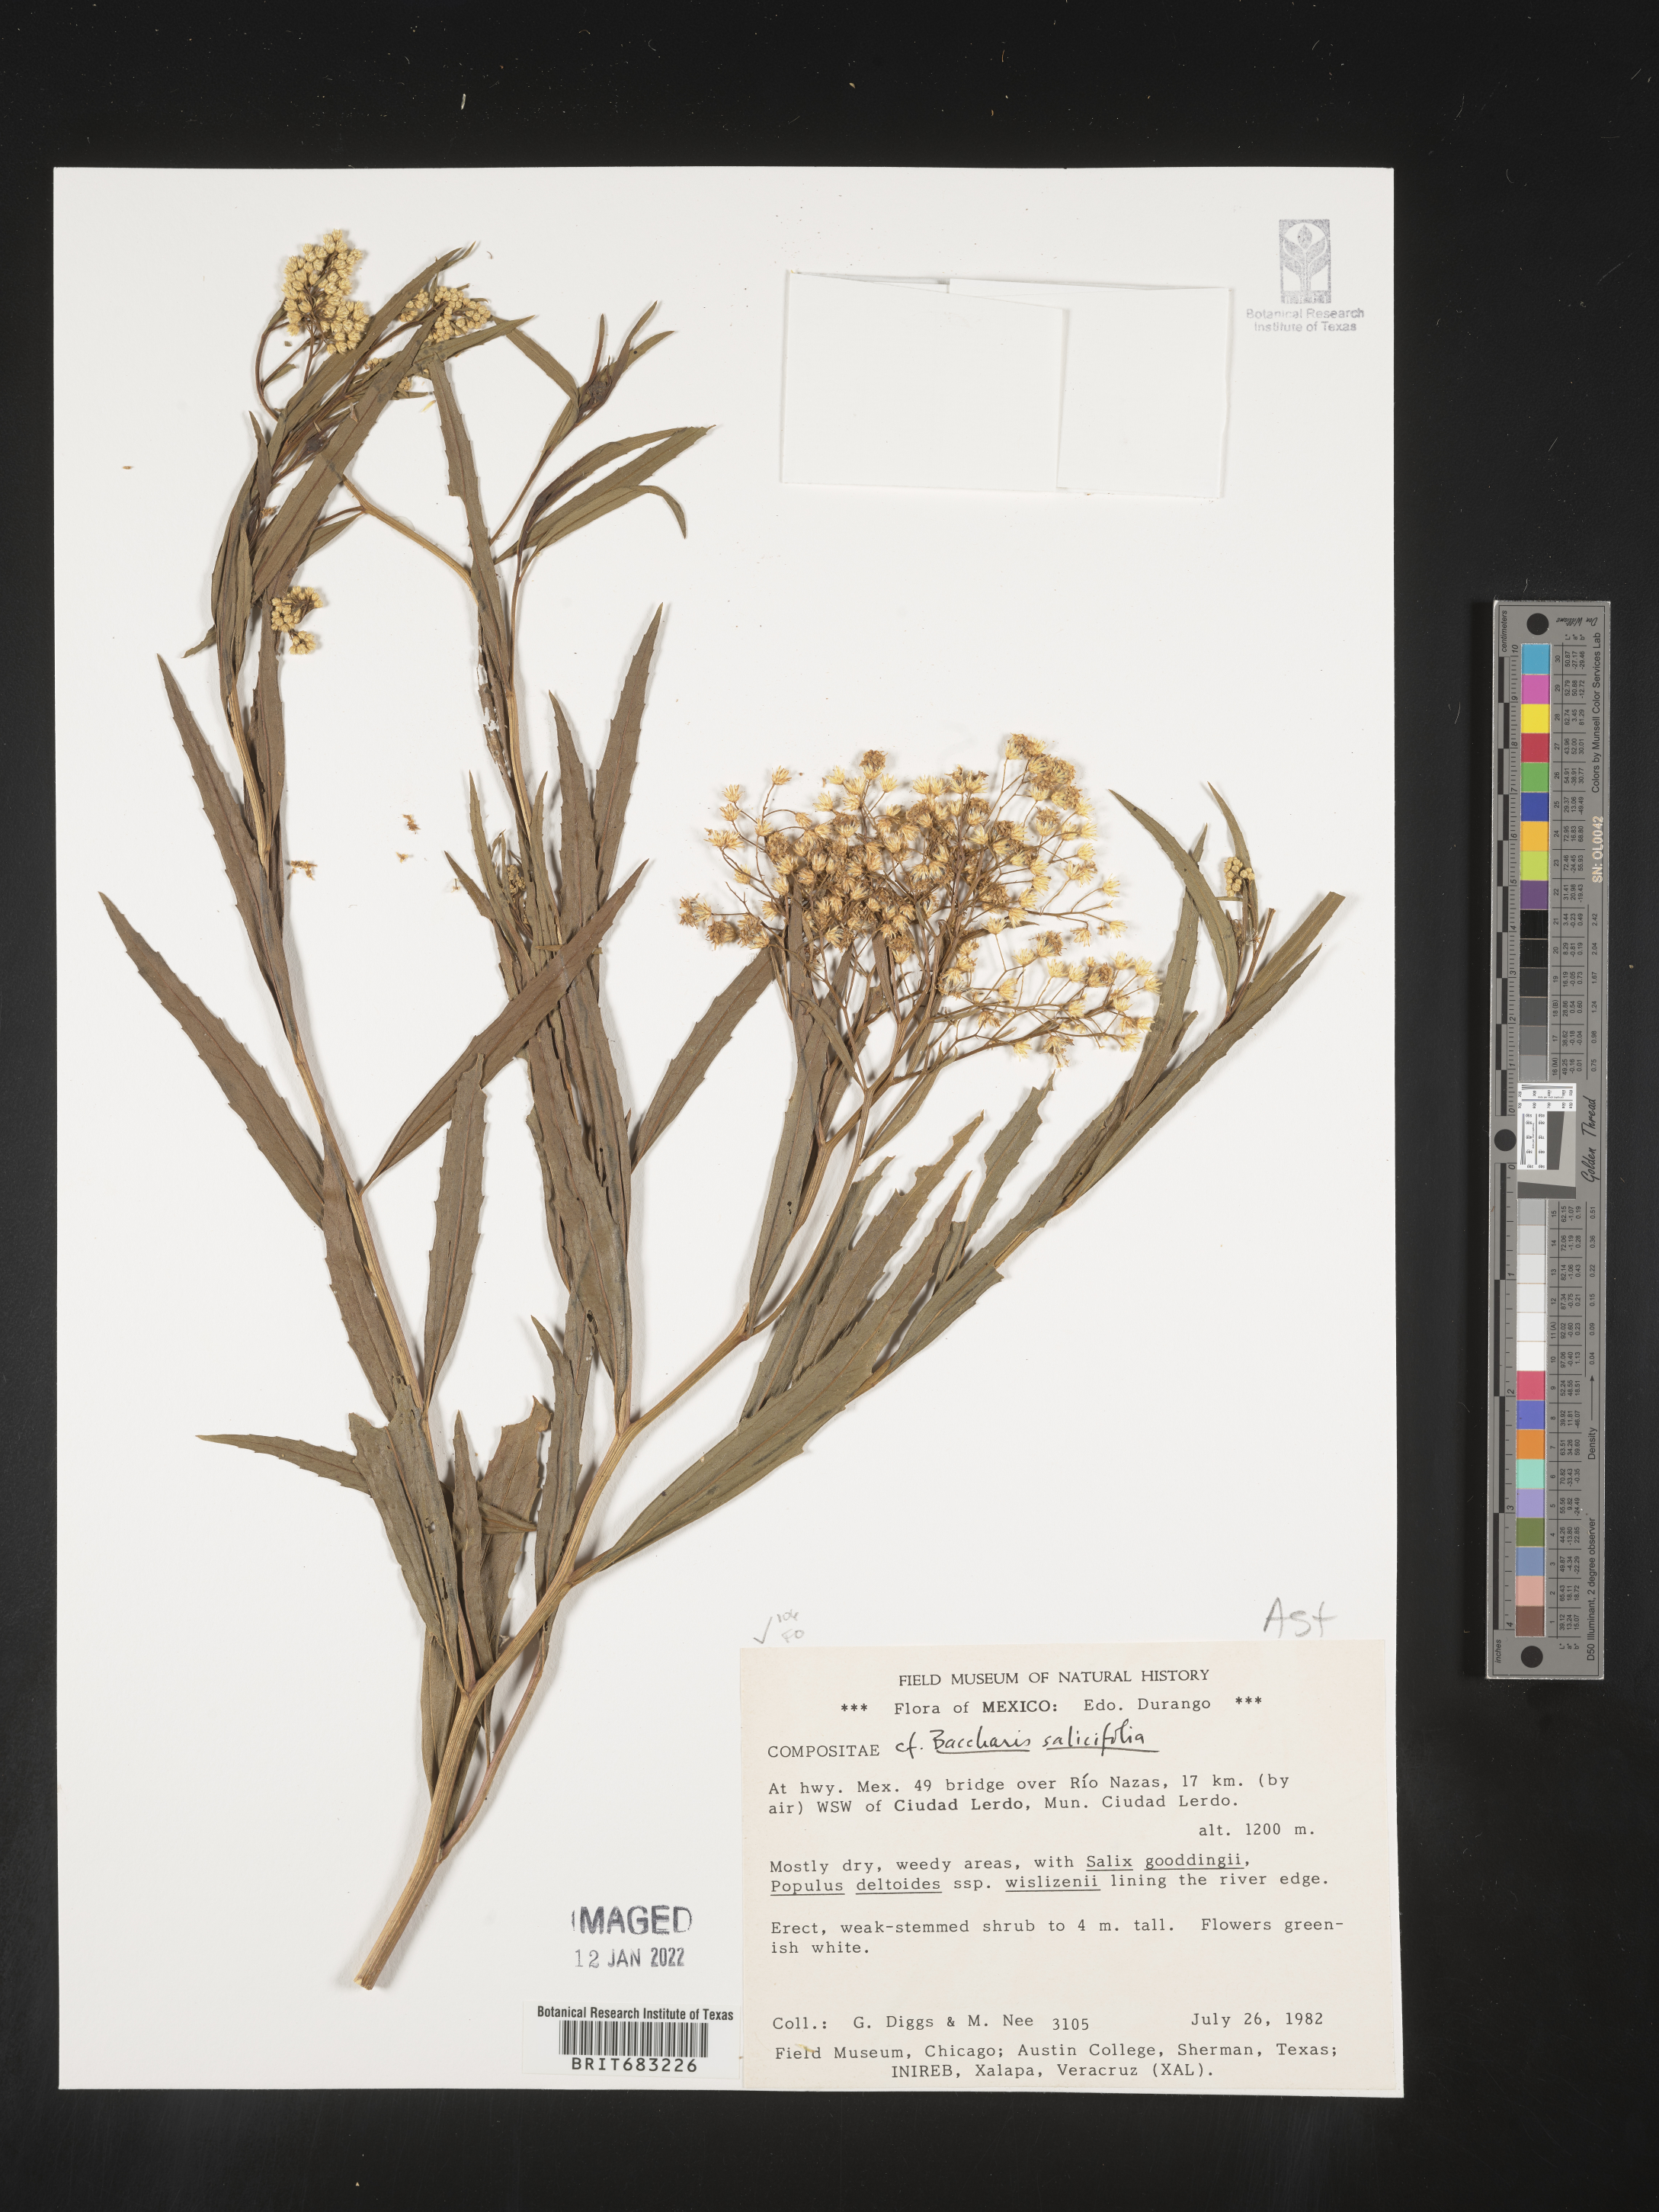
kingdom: Plantae
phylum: Tracheophyta
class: Magnoliopsida
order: Asterales
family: Asteraceae
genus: Baccharis
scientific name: Baccharis salicifolia
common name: Sticky baccharis
